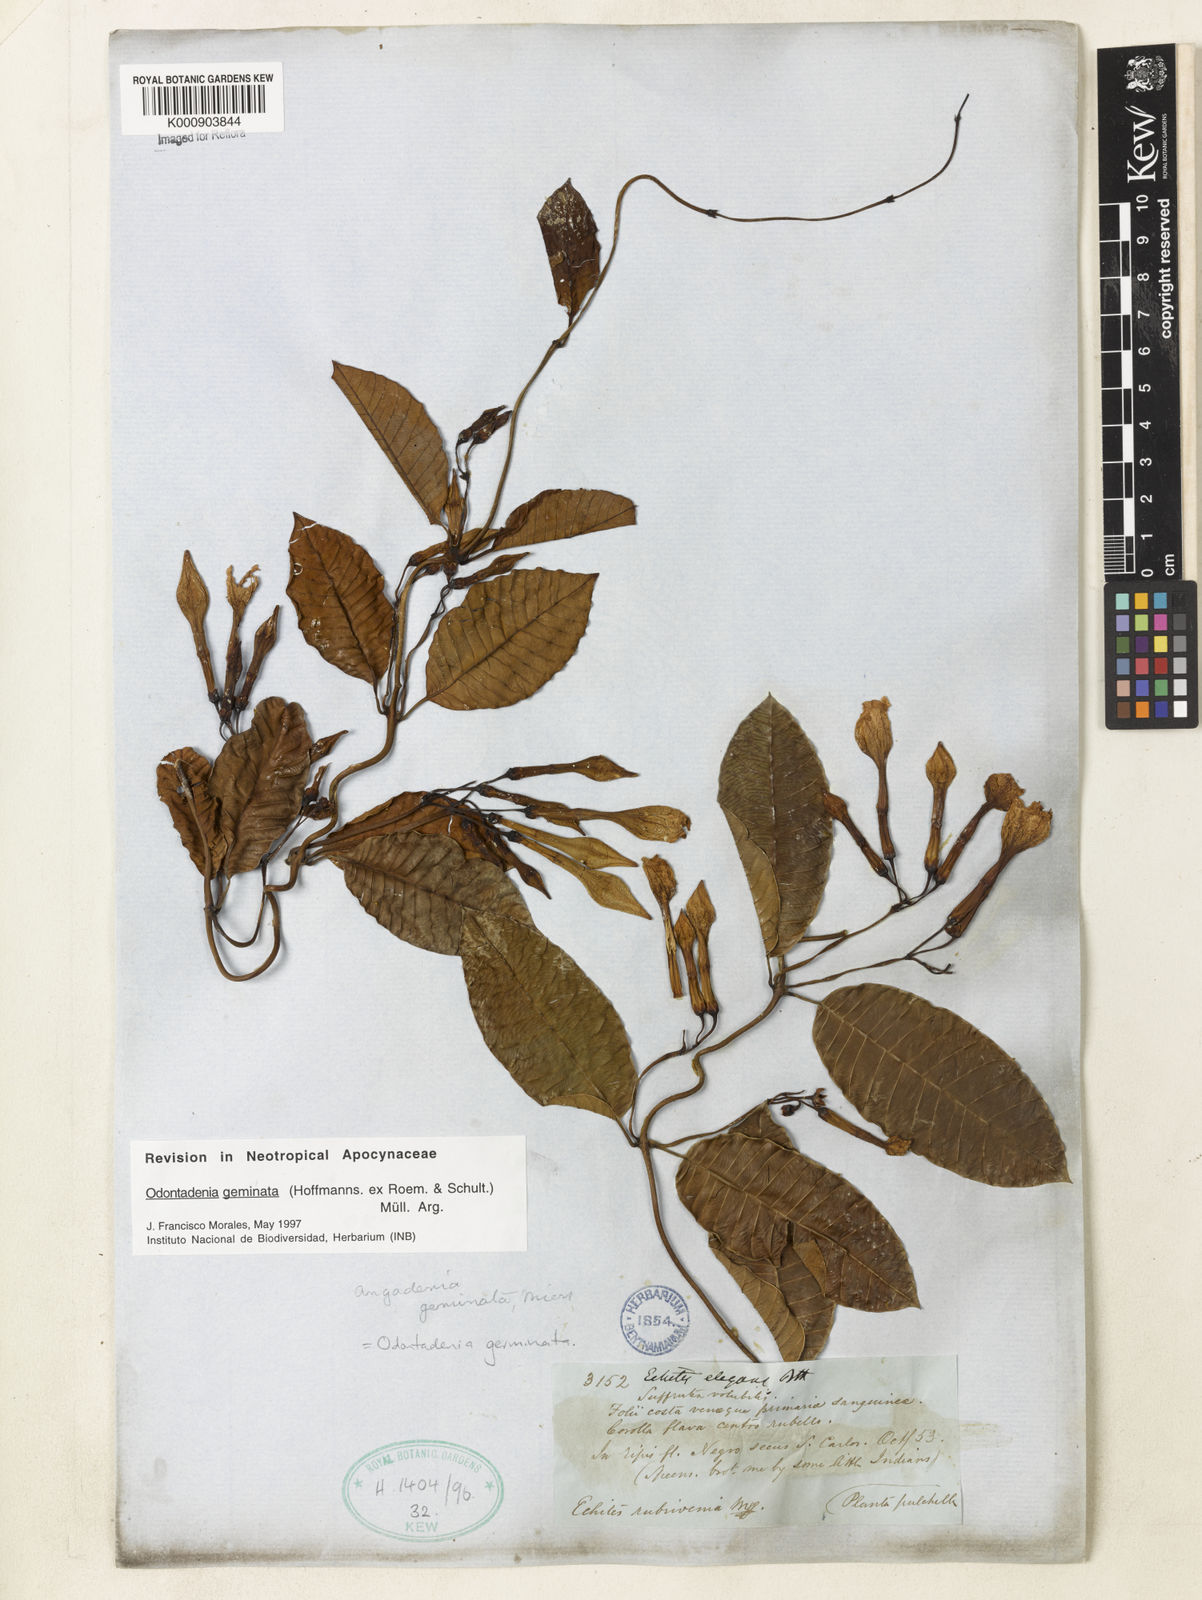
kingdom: Plantae
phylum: Tracheophyta
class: Magnoliopsida
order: Gentianales
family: Apocynaceae
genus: Odontadenia
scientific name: Odontadenia
